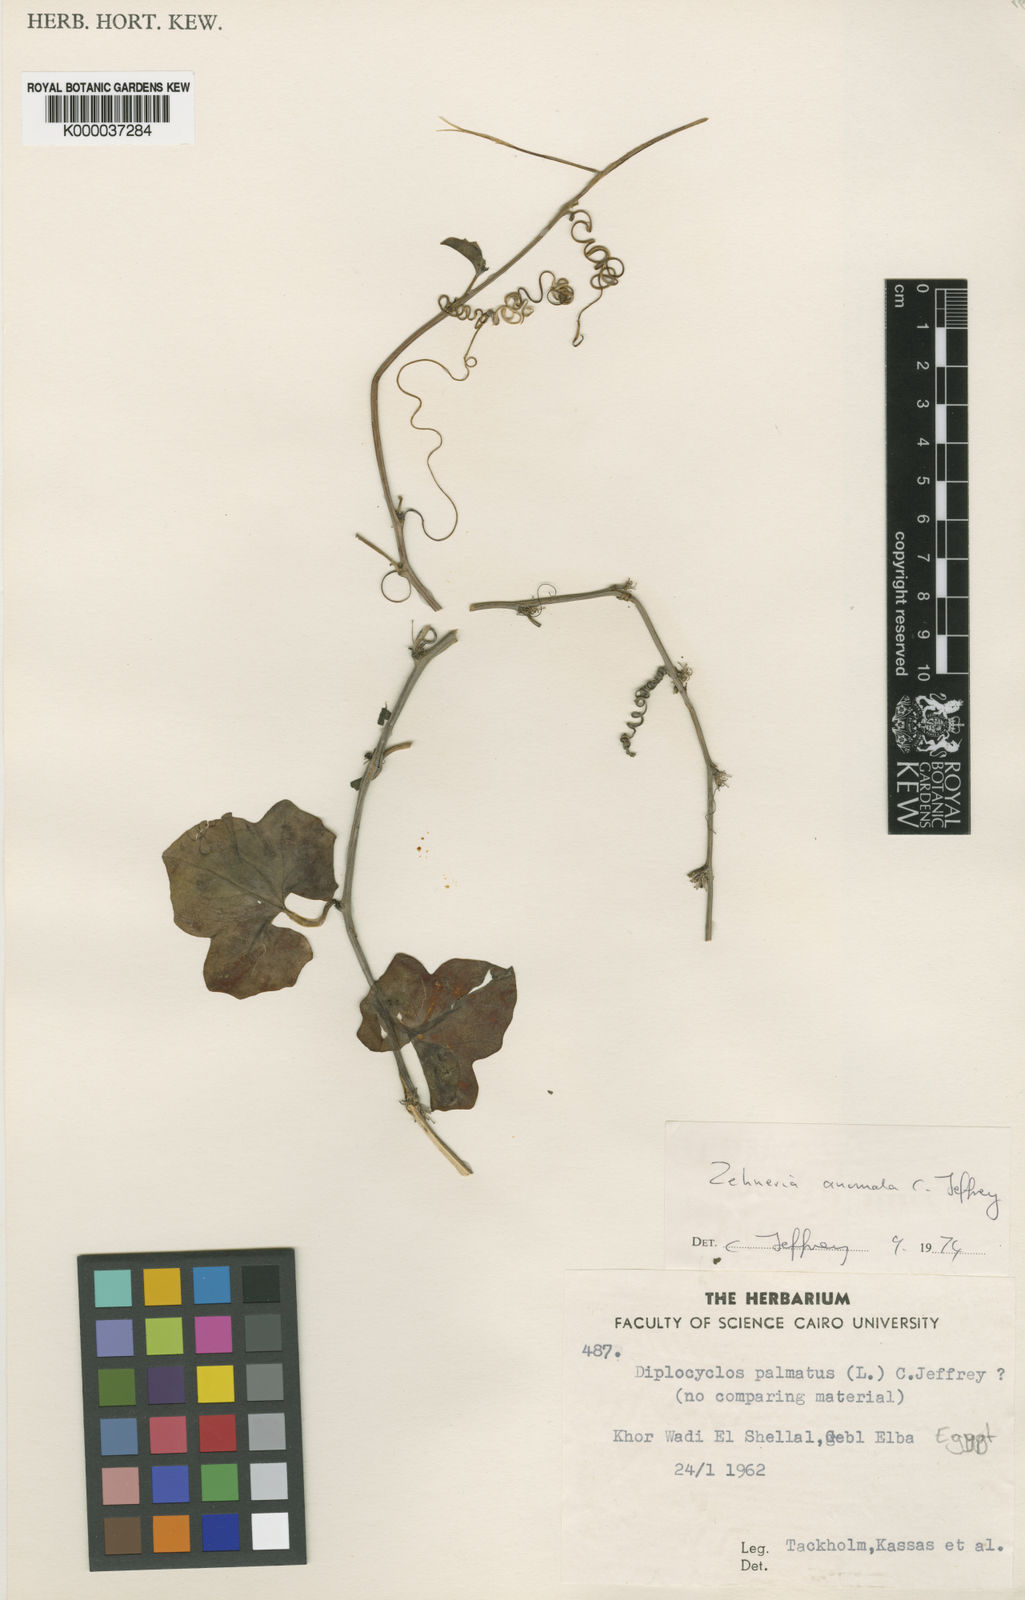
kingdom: Plantae
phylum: Tracheophyta
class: Magnoliopsida
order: Cucurbitales
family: Cucurbitaceae
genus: Zehneria
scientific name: Zehneria anomala
